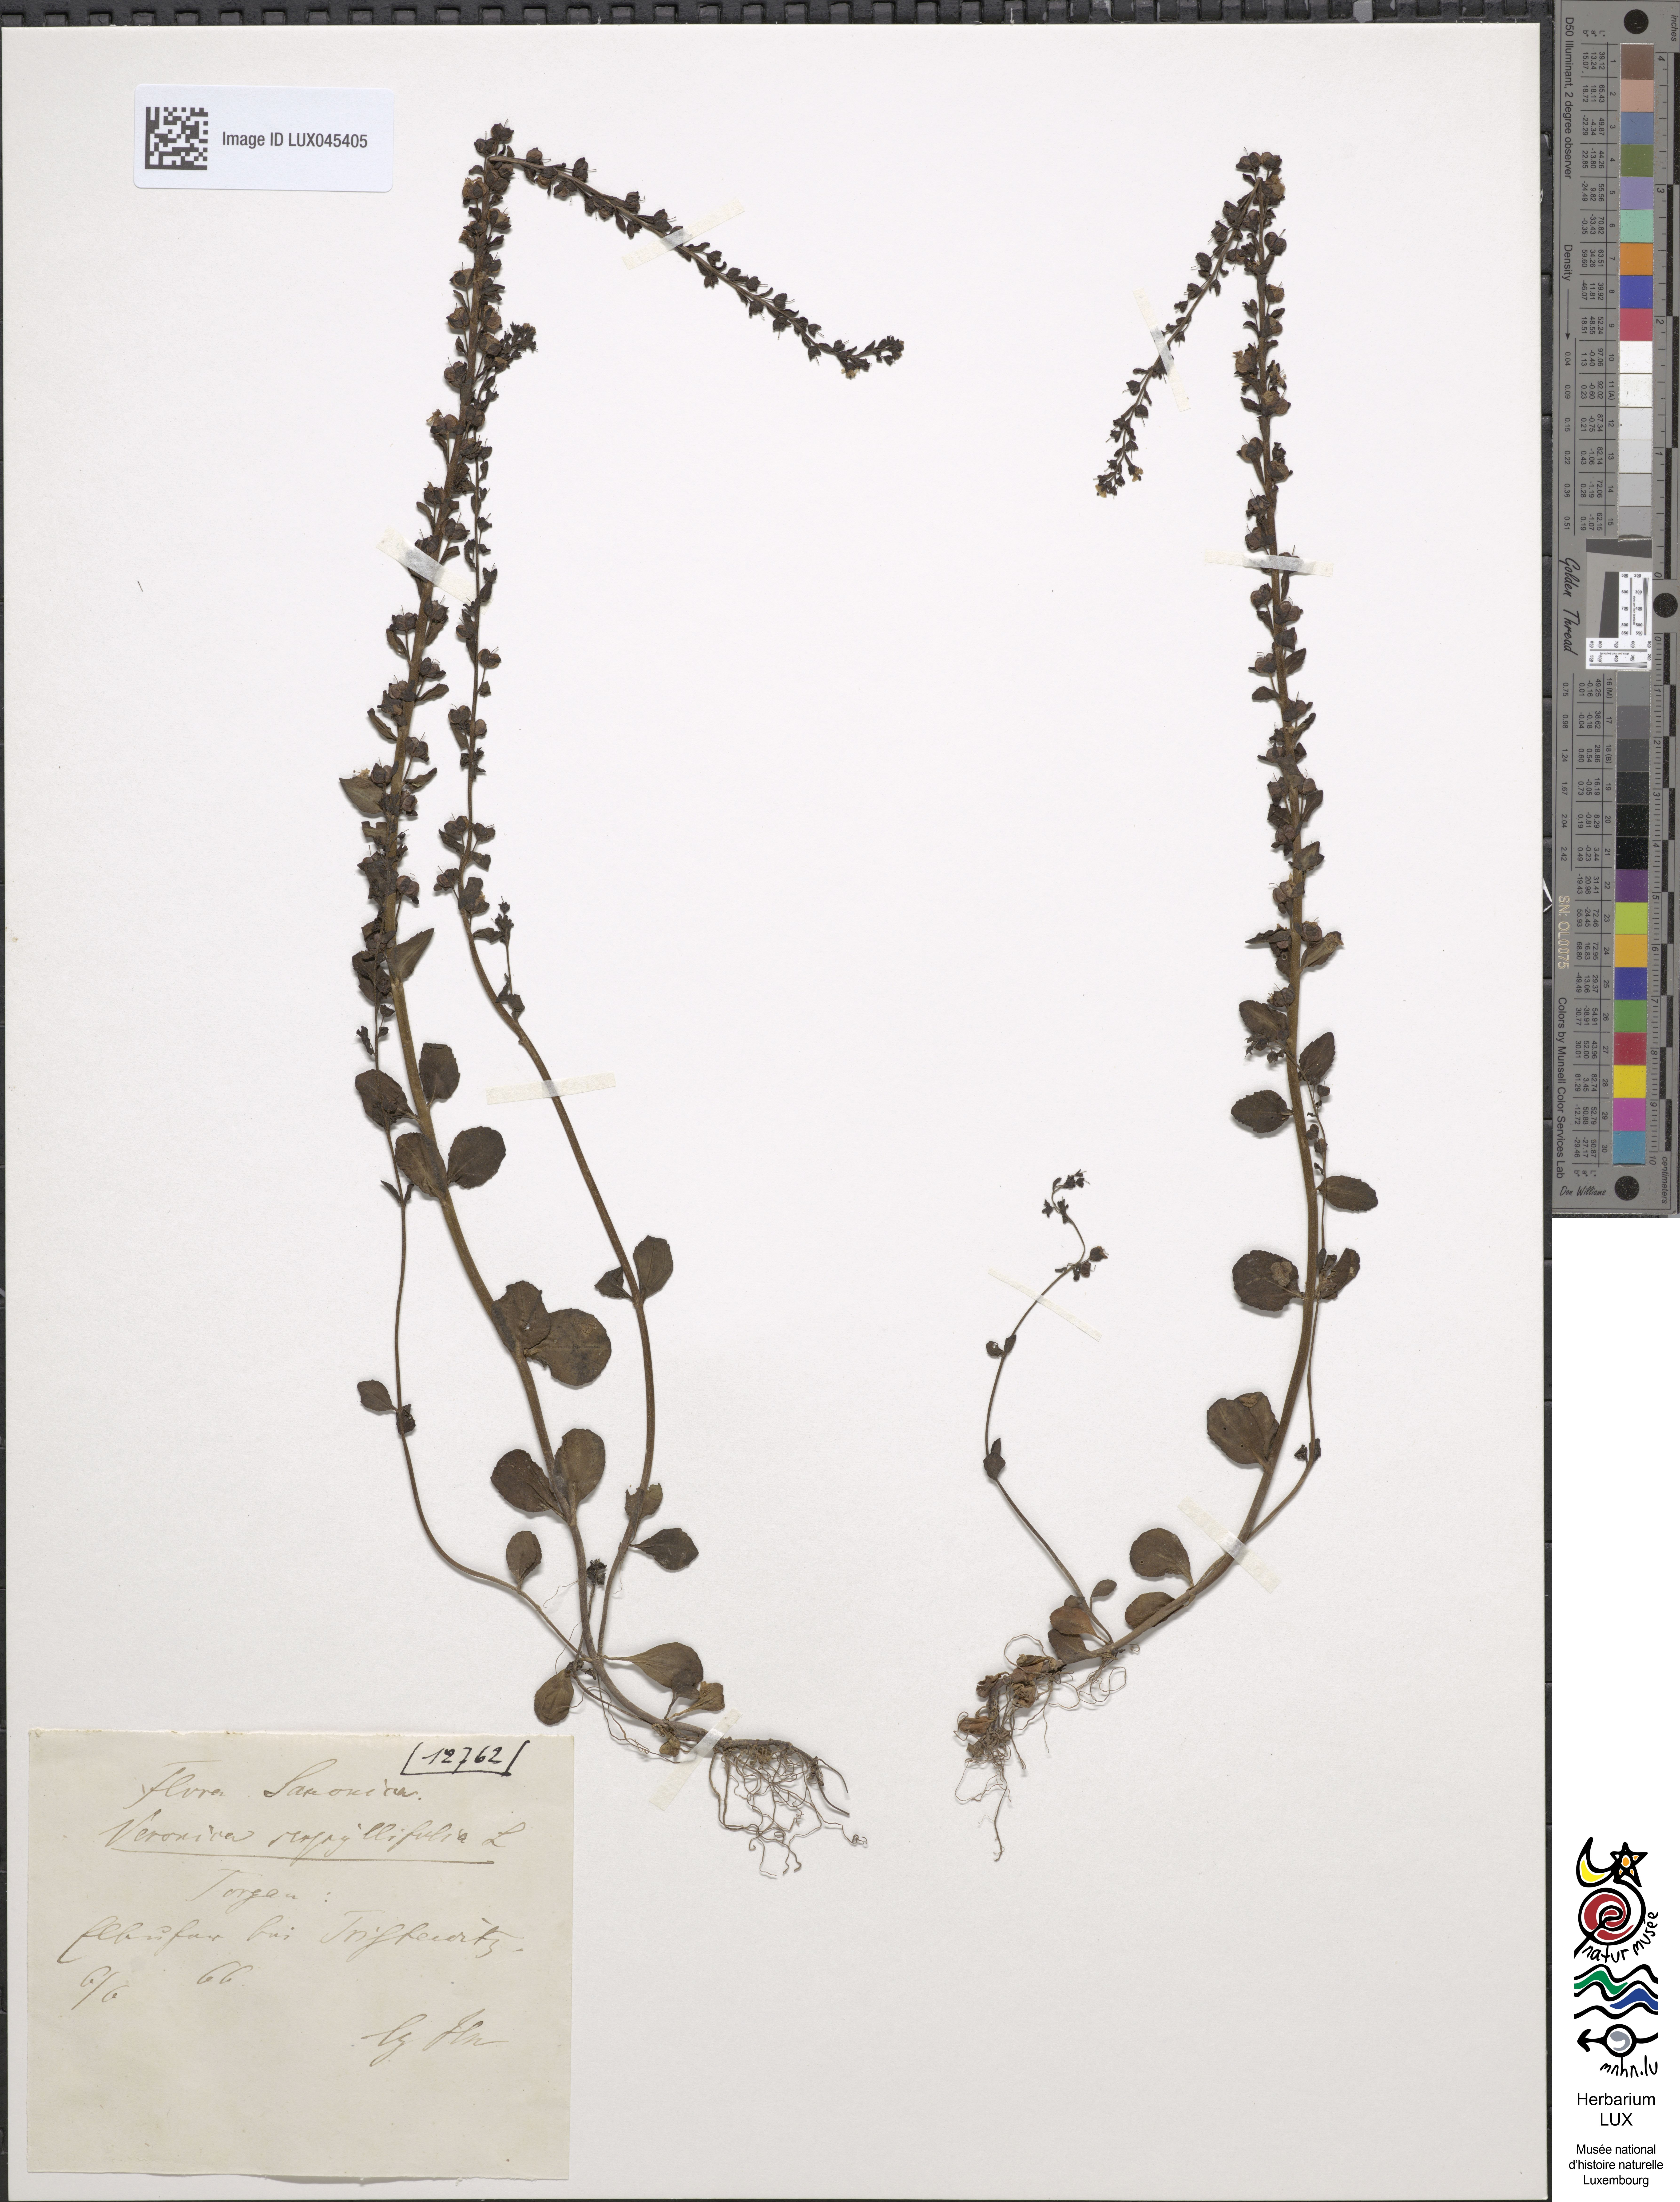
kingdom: Plantae
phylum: Tracheophyta
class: Magnoliopsida
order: Lamiales
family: Plantaginaceae
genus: Veronica
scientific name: Veronica serpyllifolia
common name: Thyme-leaved speedwell
